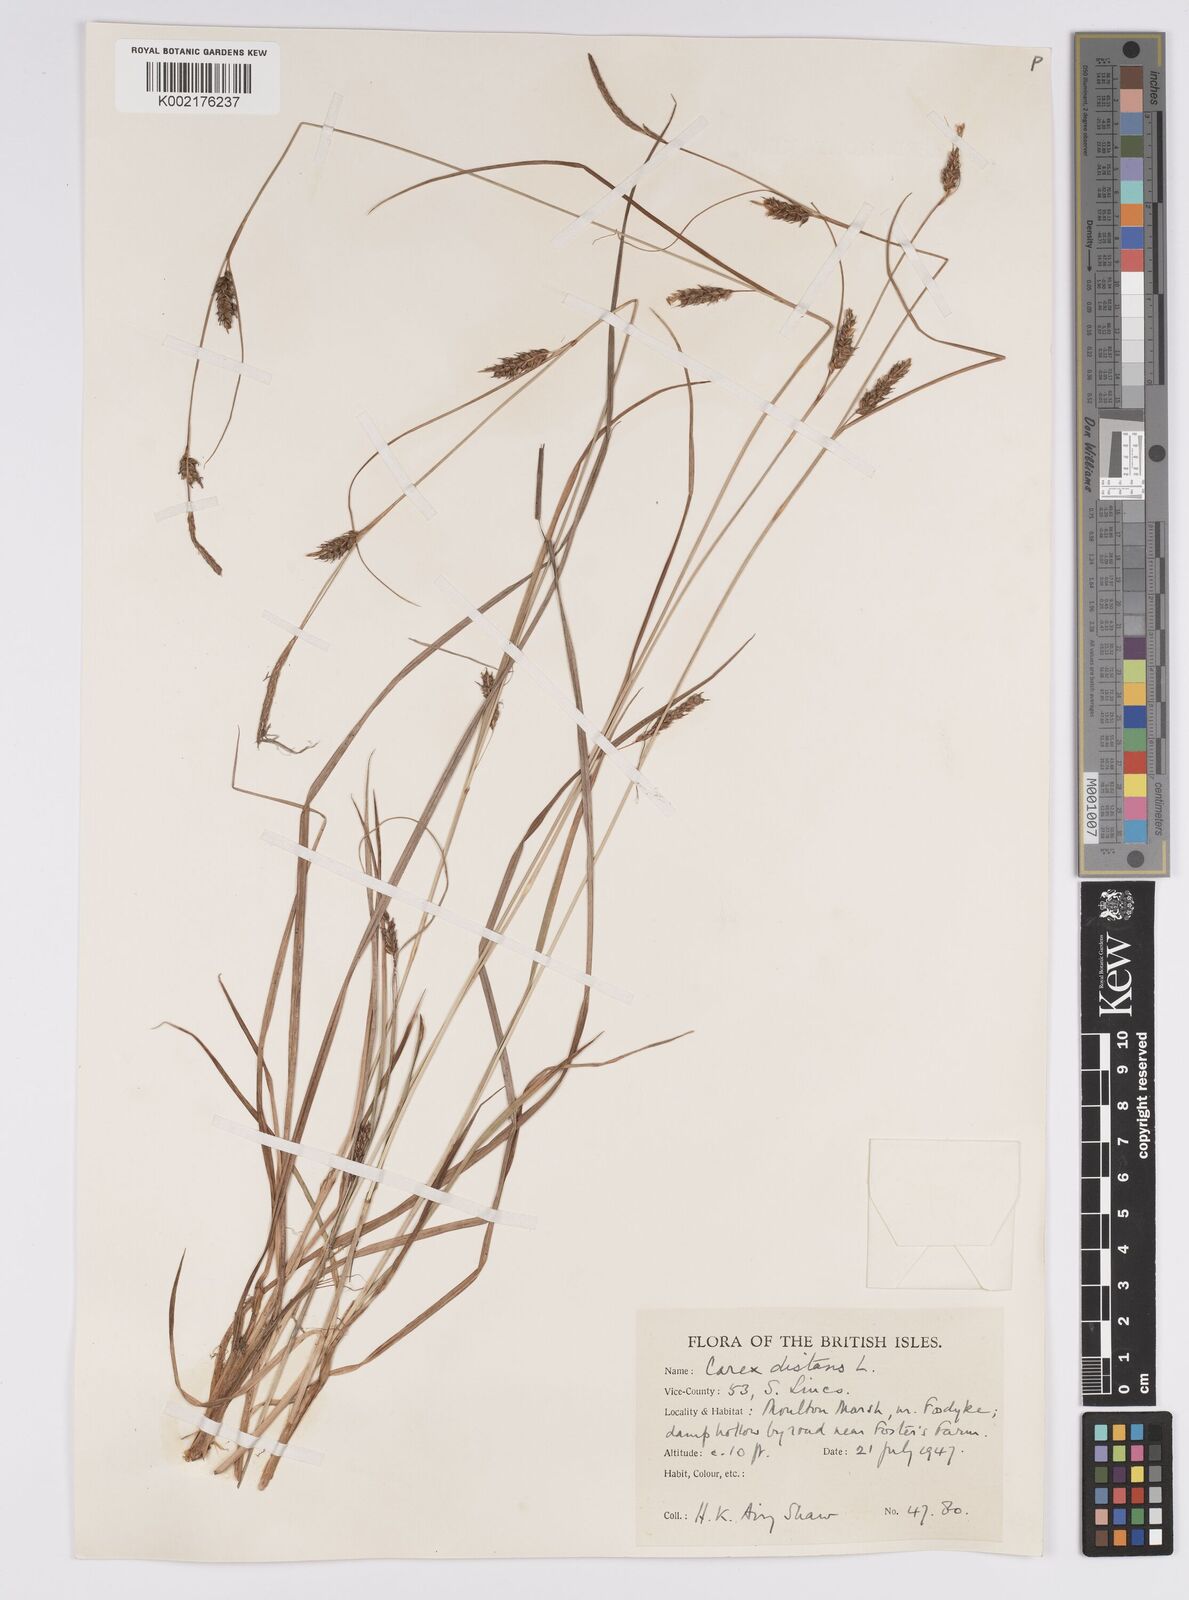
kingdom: Plantae
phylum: Tracheophyta
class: Liliopsida
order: Poales
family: Cyperaceae
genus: Carex
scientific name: Carex distans
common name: Distant sedge
